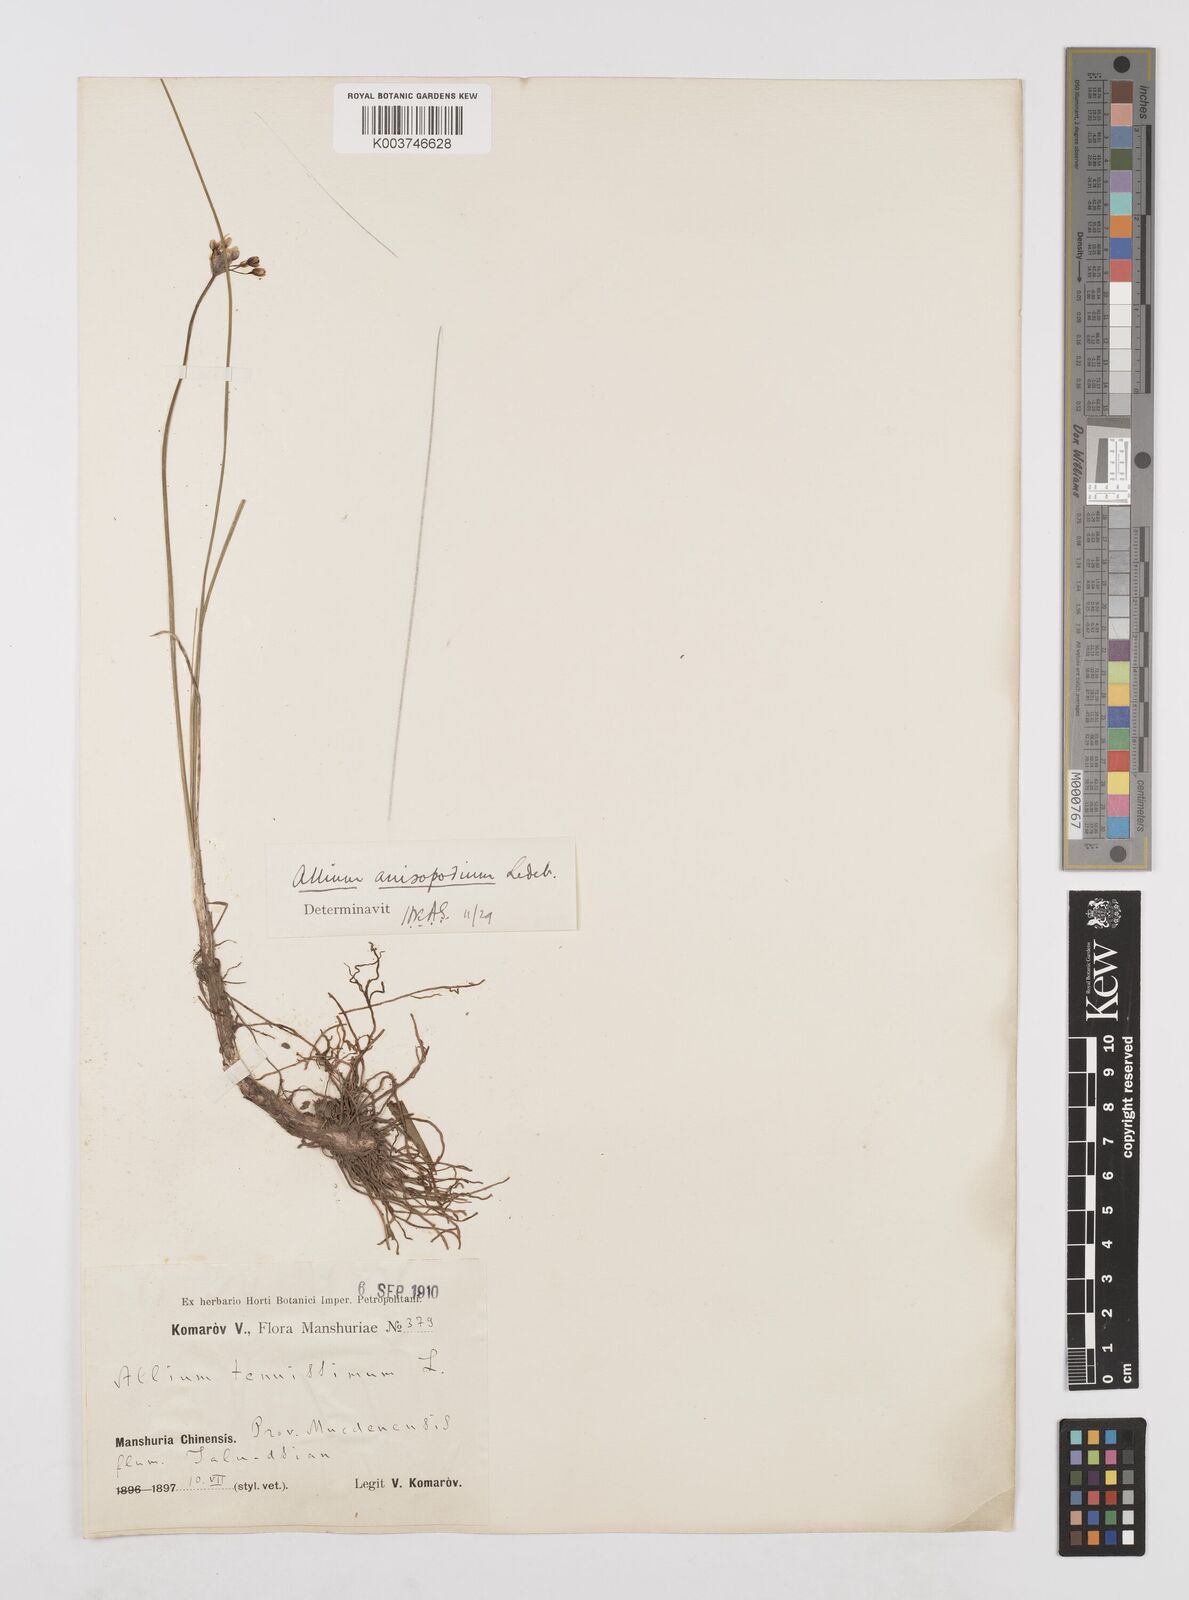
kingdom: Plantae
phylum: Tracheophyta
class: Liliopsida
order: Asparagales
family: Amaryllidaceae
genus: Allium
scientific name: Allium anisopodium
